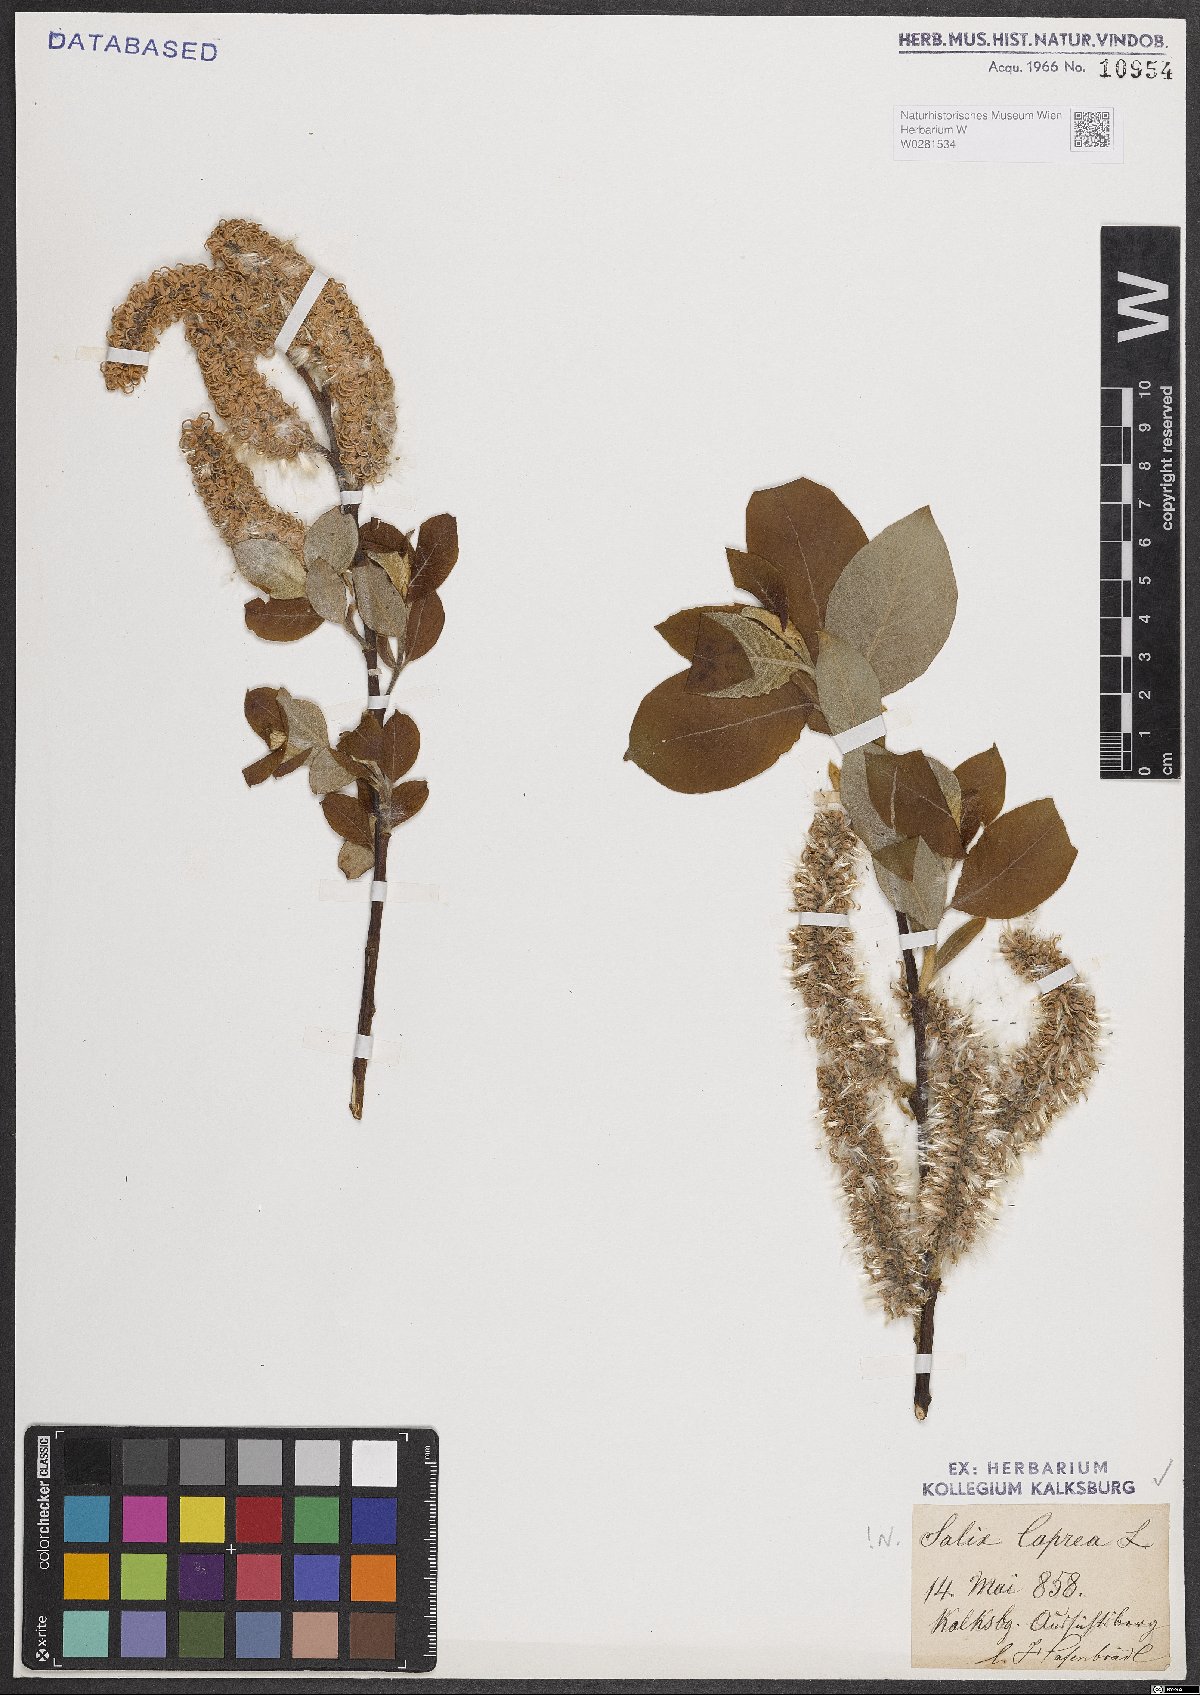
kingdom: Plantae
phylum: Tracheophyta
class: Magnoliopsida
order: Malpighiales
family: Salicaceae
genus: Salix
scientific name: Salix caprea
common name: Goat willow
